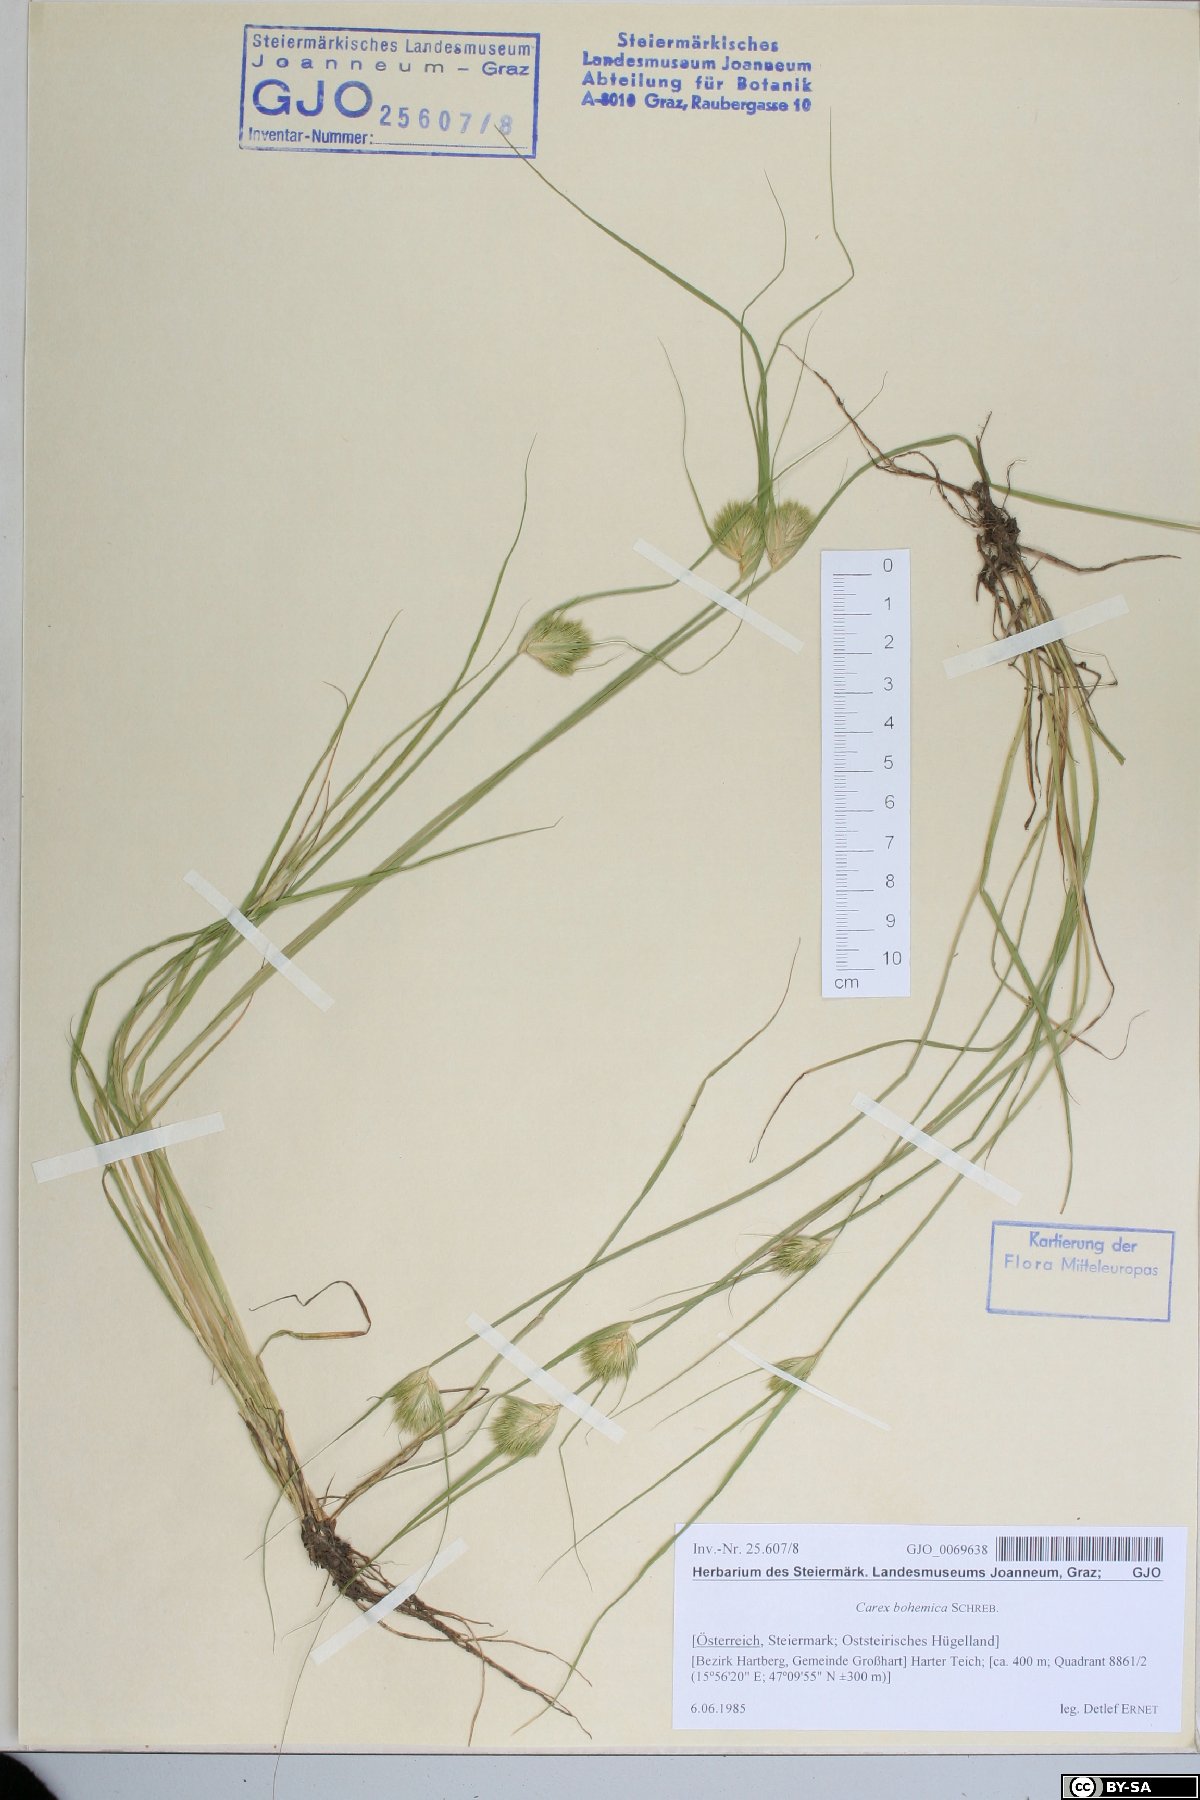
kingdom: Plantae
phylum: Tracheophyta
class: Liliopsida
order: Poales
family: Cyperaceae
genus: Carex
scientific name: Carex bohemica
